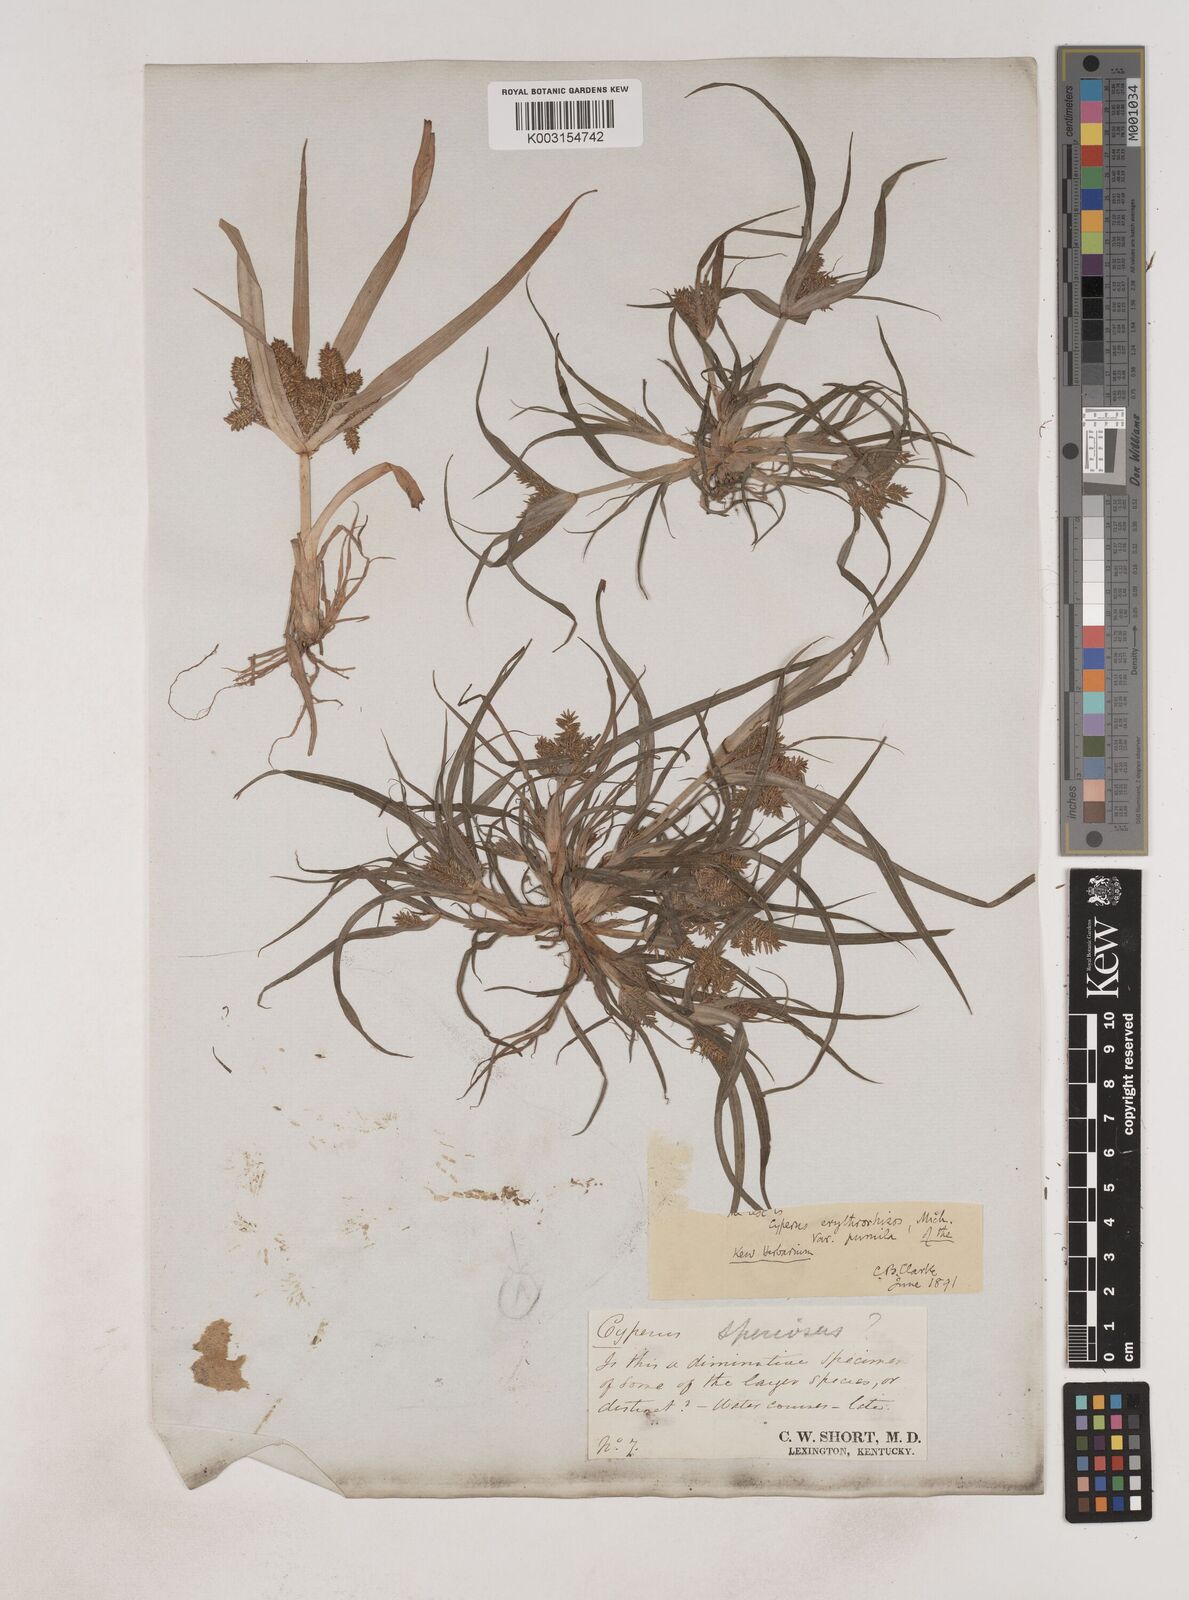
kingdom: Plantae
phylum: Tracheophyta
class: Liliopsida
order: Poales
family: Cyperaceae
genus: Cyperus
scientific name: Cyperus erythrorhizos
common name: Red-root flat sedge
